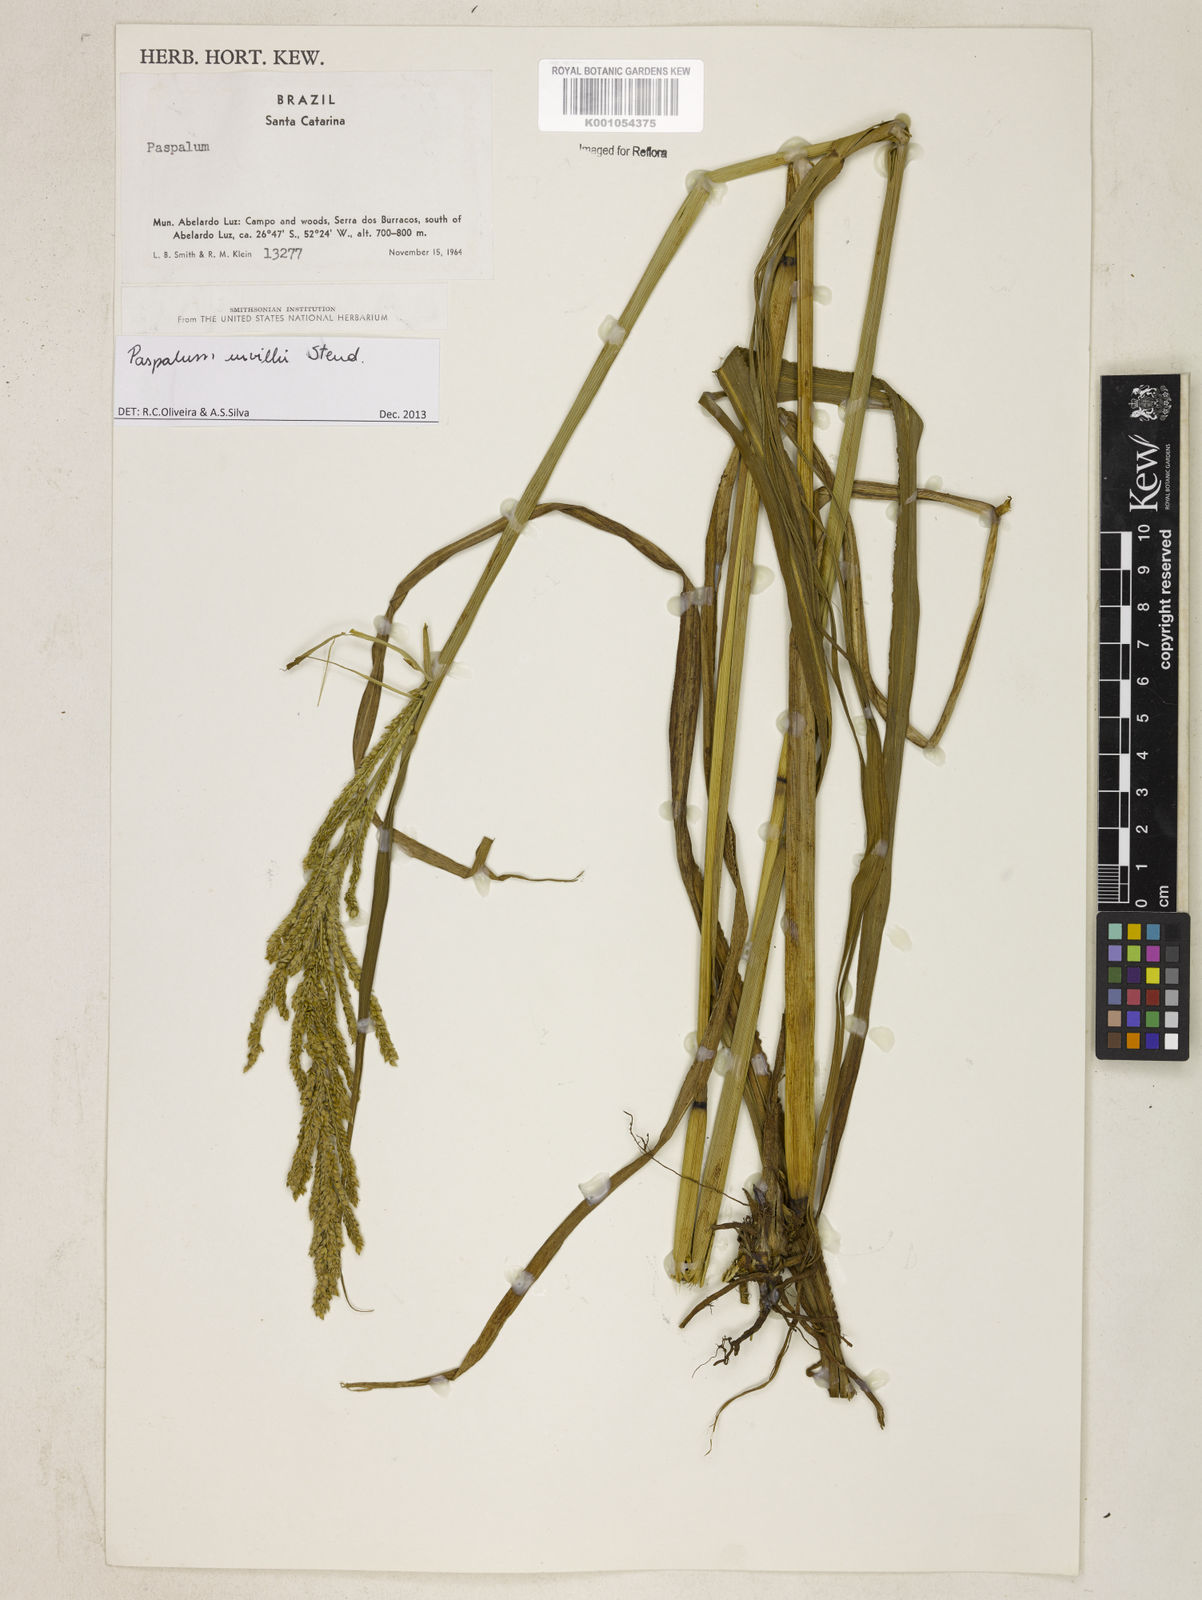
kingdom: Plantae
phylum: Tracheophyta
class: Liliopsida
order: Poales
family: Poaceae
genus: Paspalum
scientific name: Paspalum urvillei
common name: Vasey's grass
